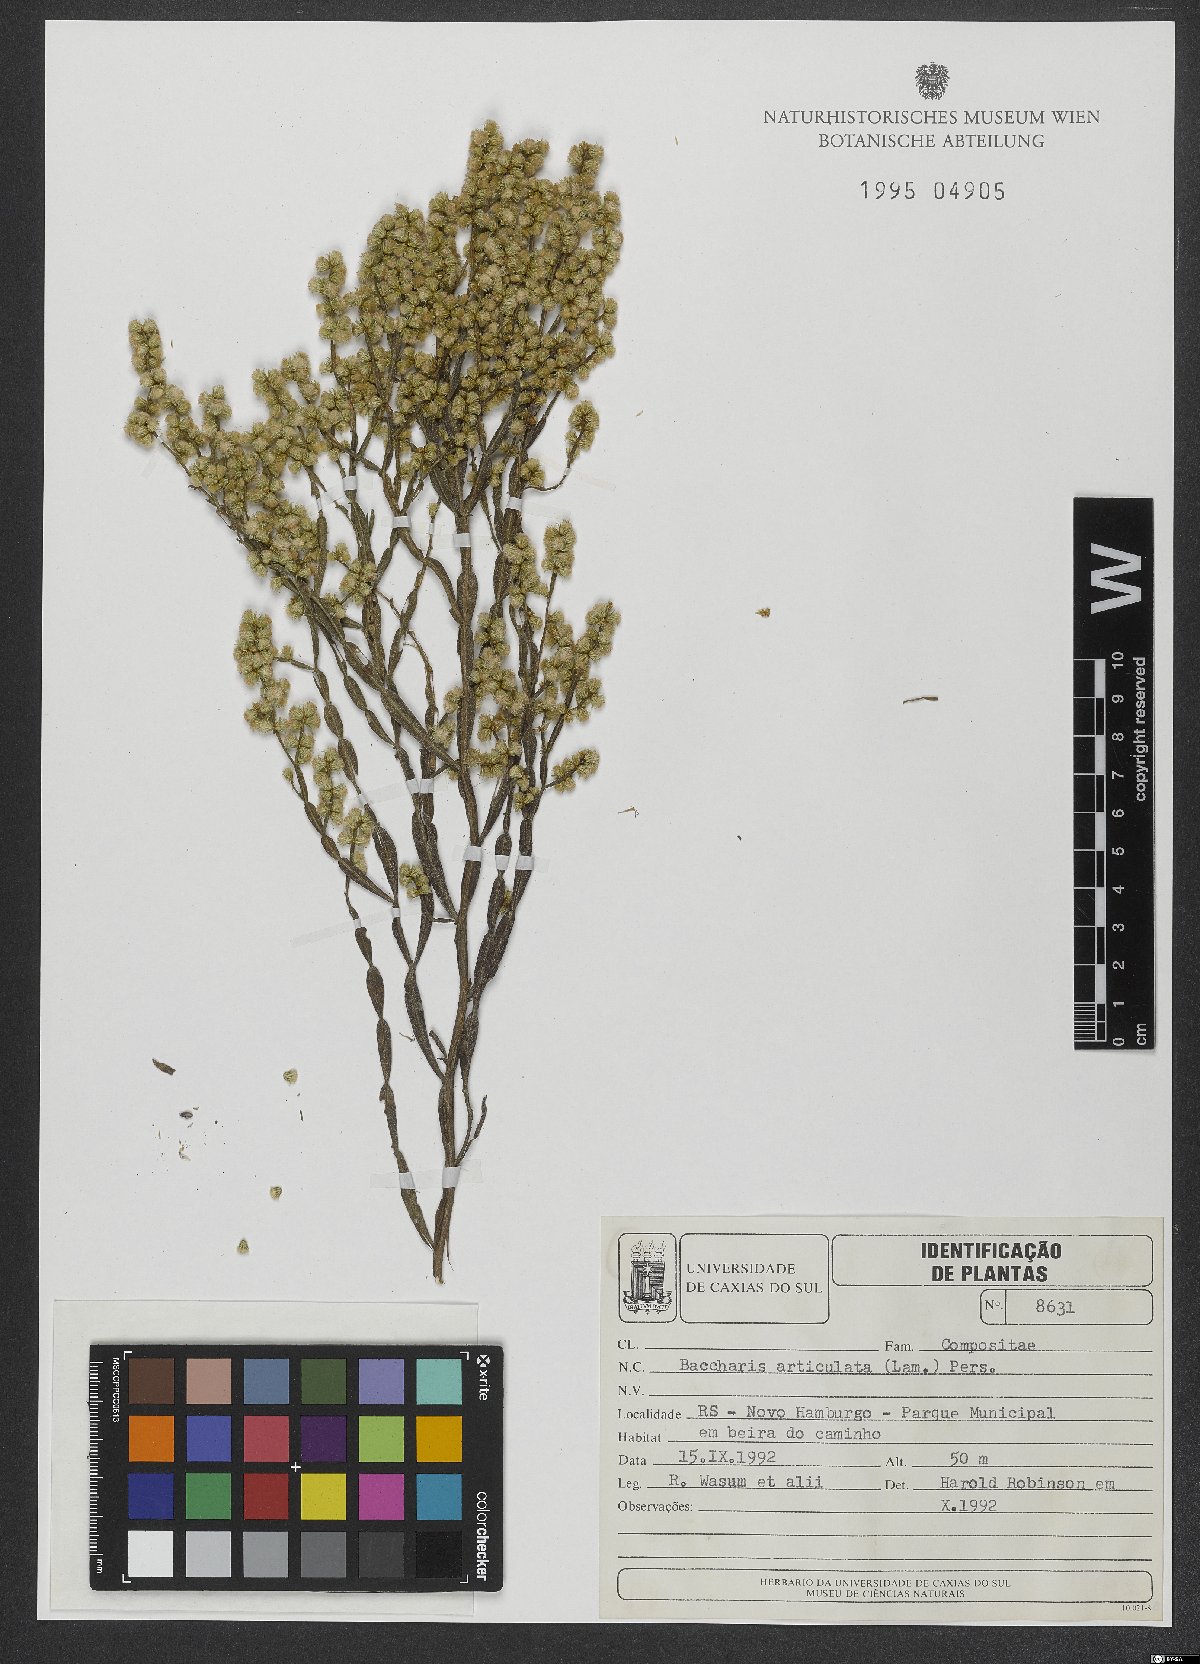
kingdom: Plantae
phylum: Tracheophyta
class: Magnoliopsida
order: Asterales
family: Asteraceae
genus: Baccharis
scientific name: Baccharis articulata
